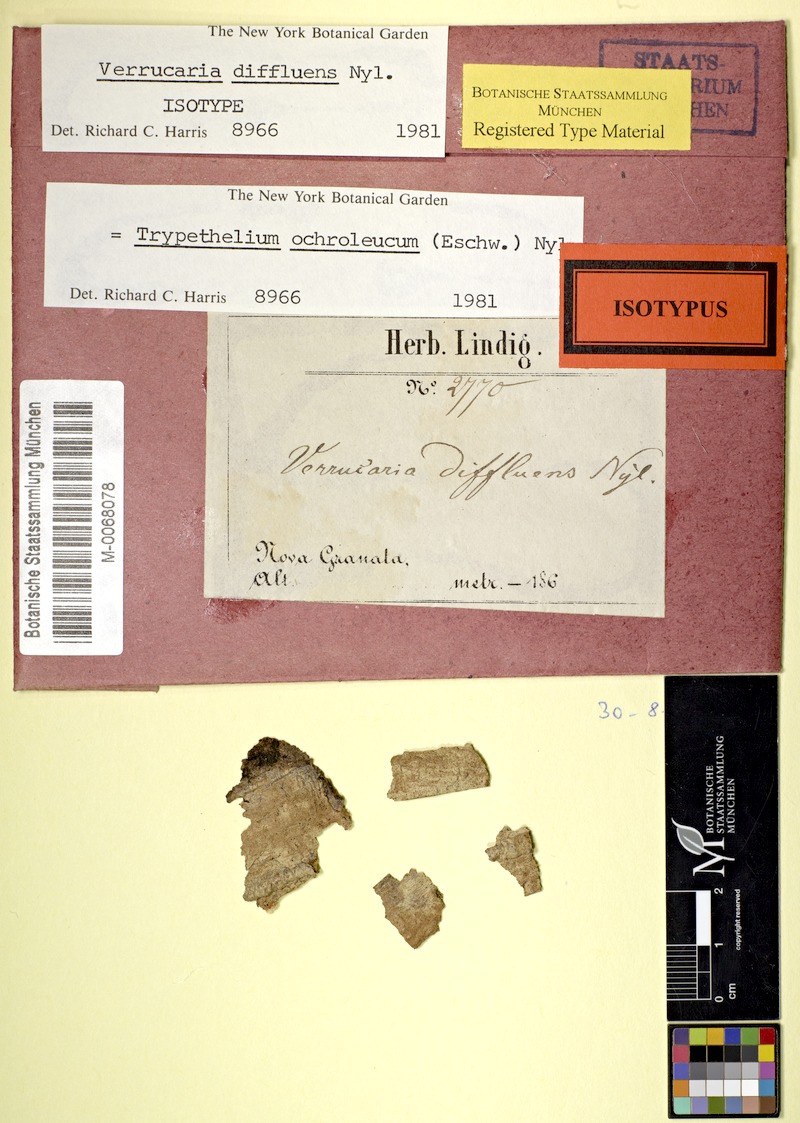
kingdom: Fungi
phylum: Ascomycota
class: Dothideomycetes
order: Trypetheliales
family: Trypetheliaceae
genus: Trypethelium
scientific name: Trypethelium ochroleucum
